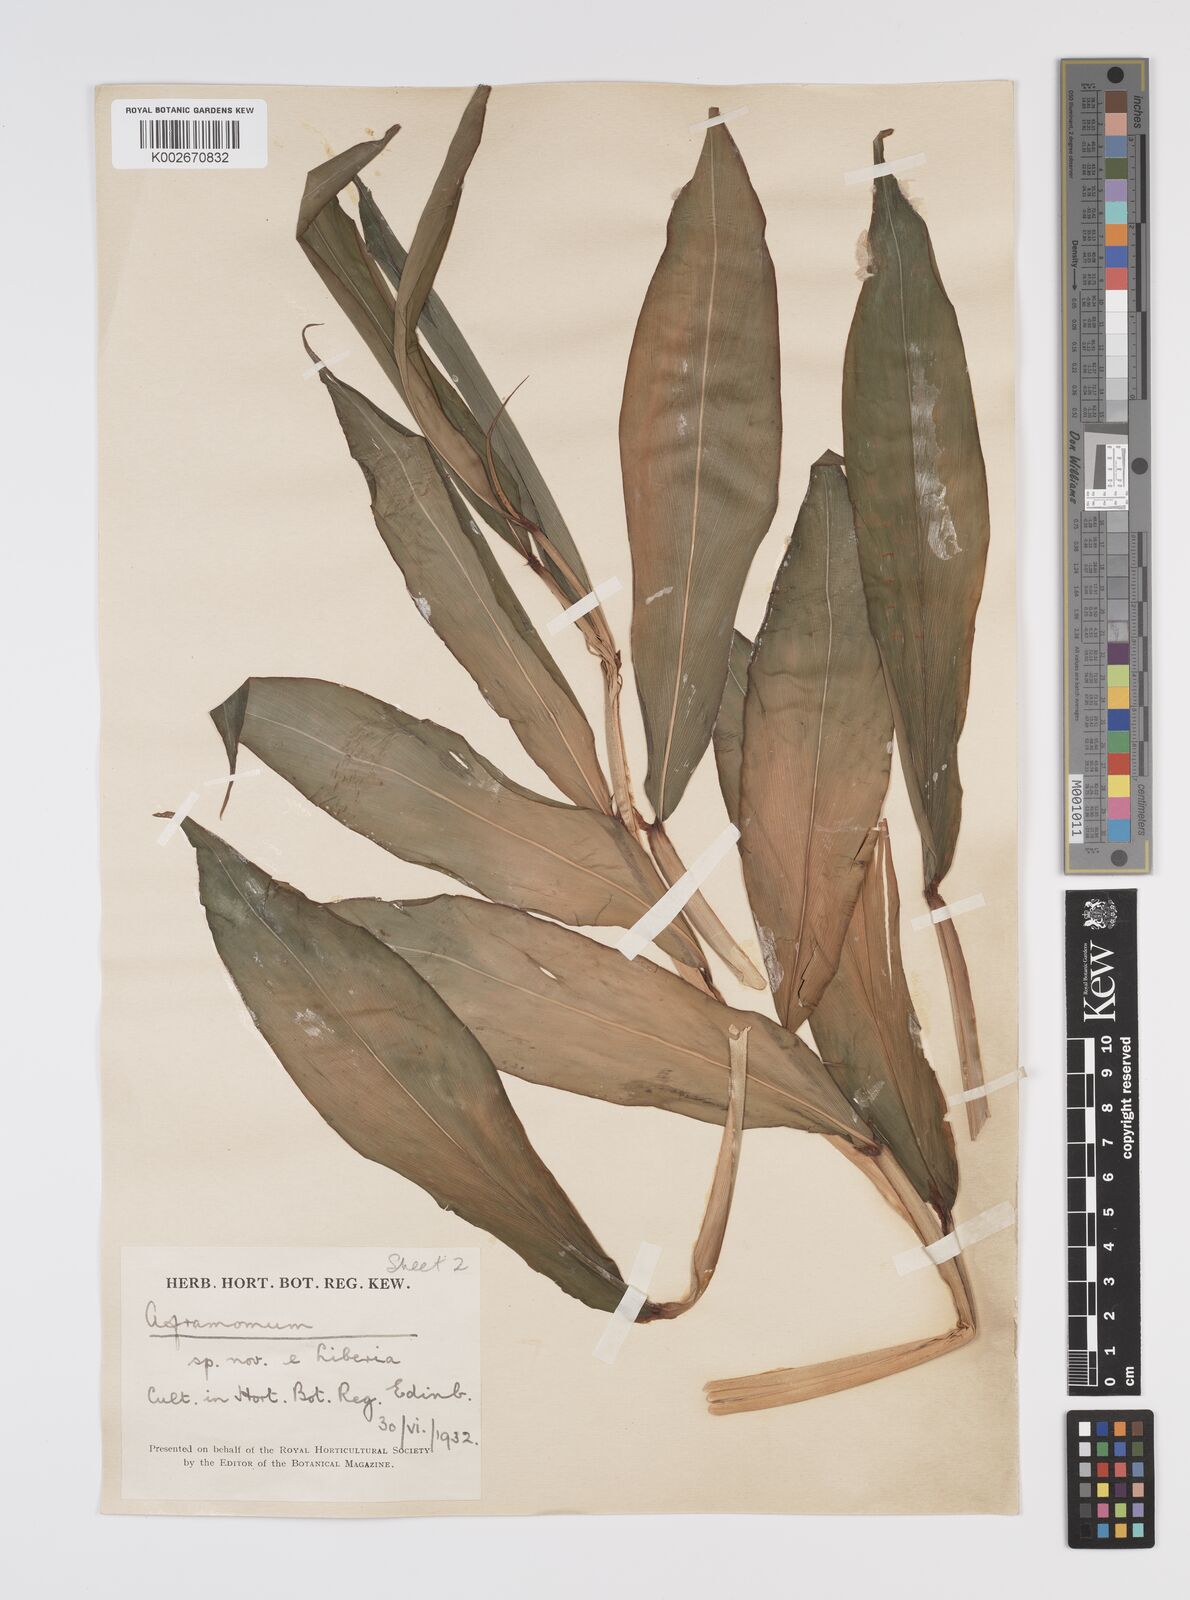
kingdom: Plantae
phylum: Tracheophyta
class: Liliopsida
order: Zingiberales
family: Zingiberaceae
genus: Aframomum
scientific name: Aframomum cereum
